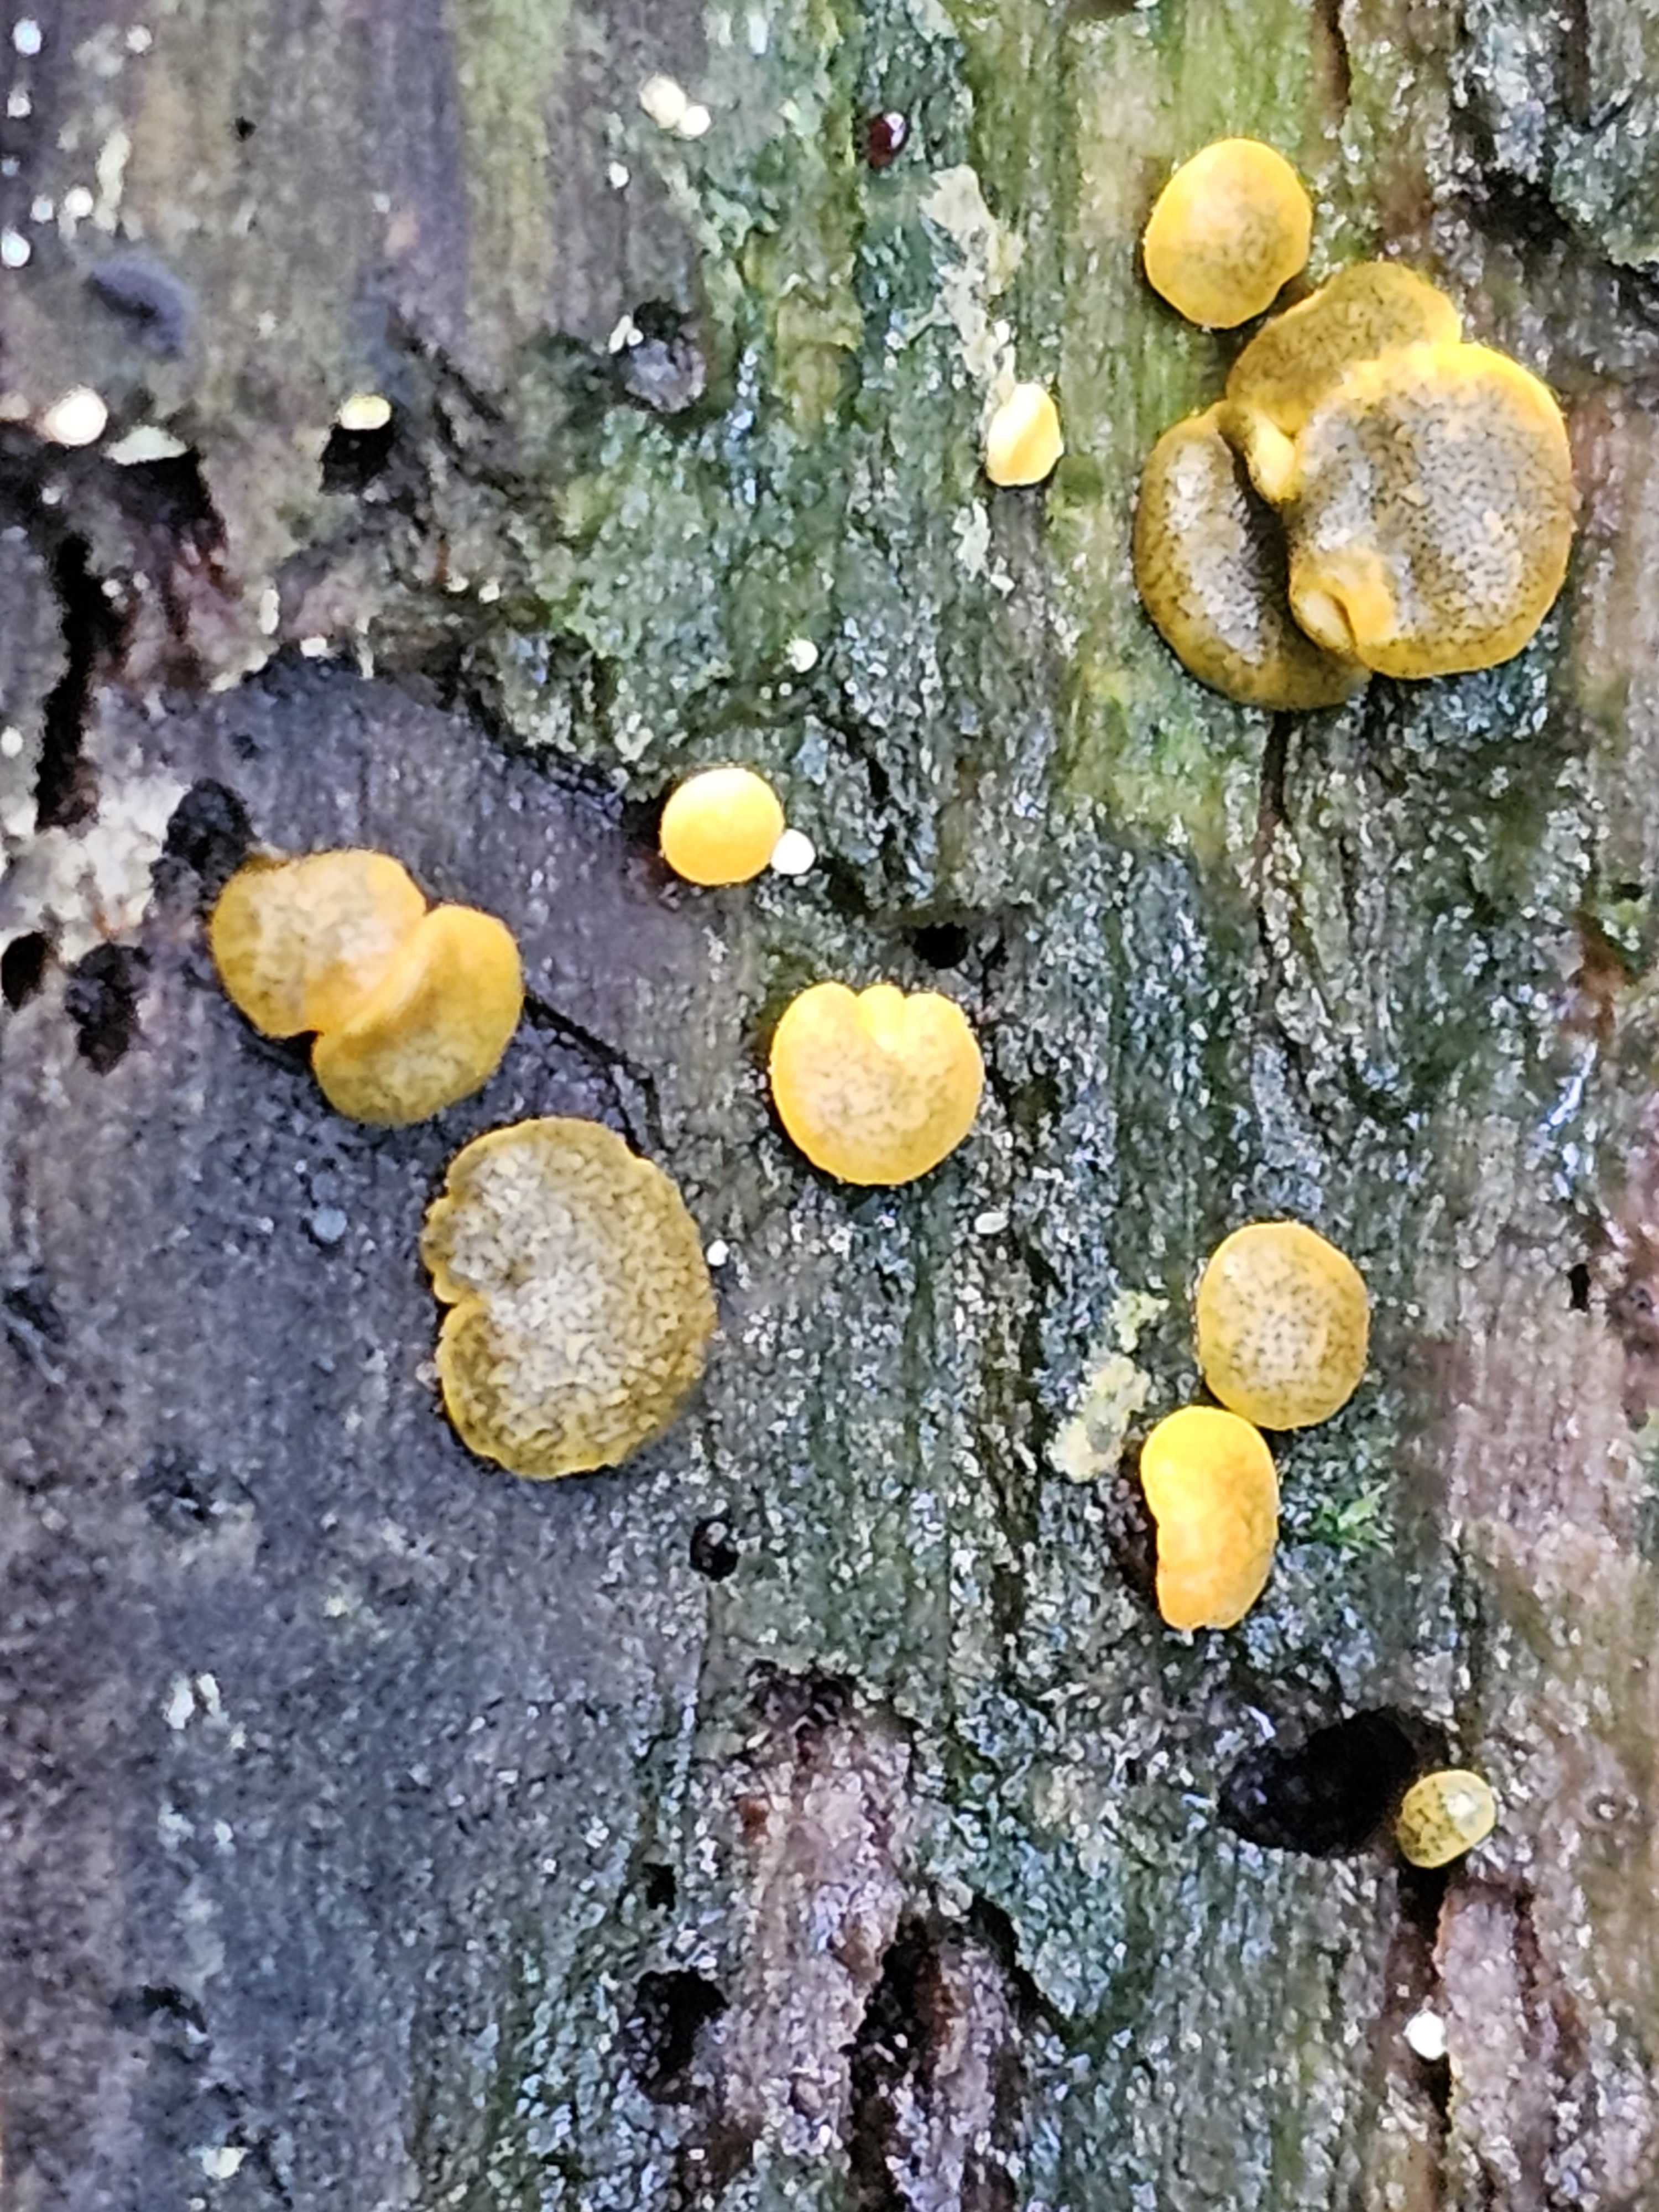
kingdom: Fungi
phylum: Ascomycota
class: Sordariomycetes
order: Hypocreales
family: Hypocreaceae
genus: Trichoderma
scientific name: Trichoderma aureoviride
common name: æggegul kødkerne
